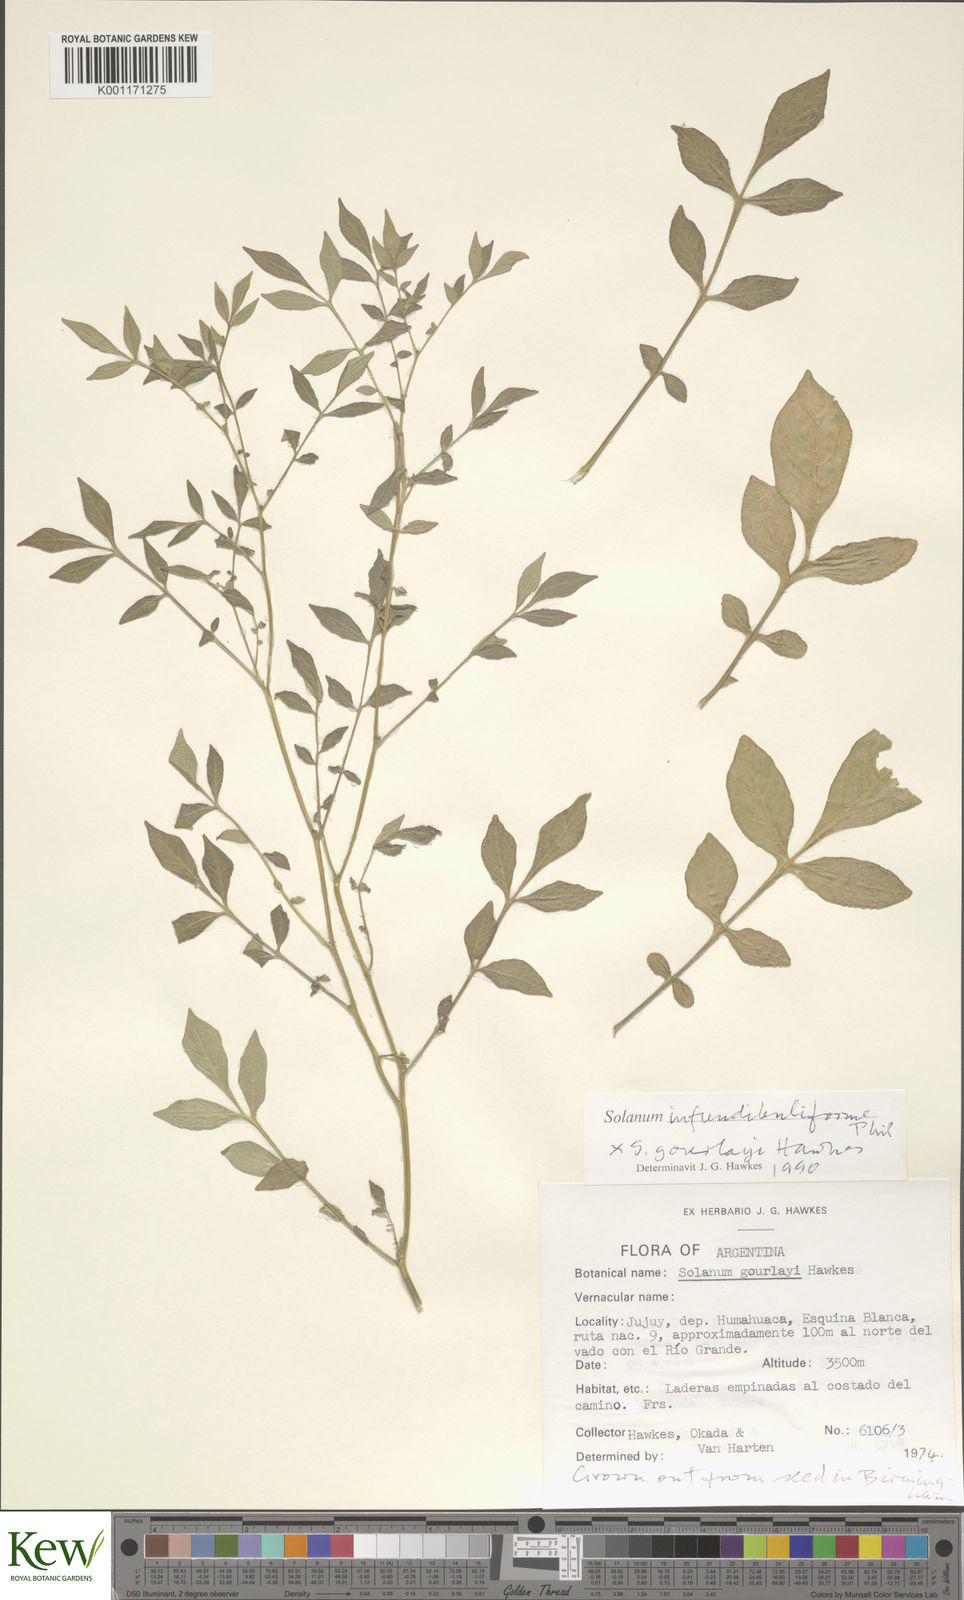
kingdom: Plantae
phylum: Tracheophyta
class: Magnoliopsida
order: Solanales
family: Solanaceae
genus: Solanum
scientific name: Solanum infundibuliforme
